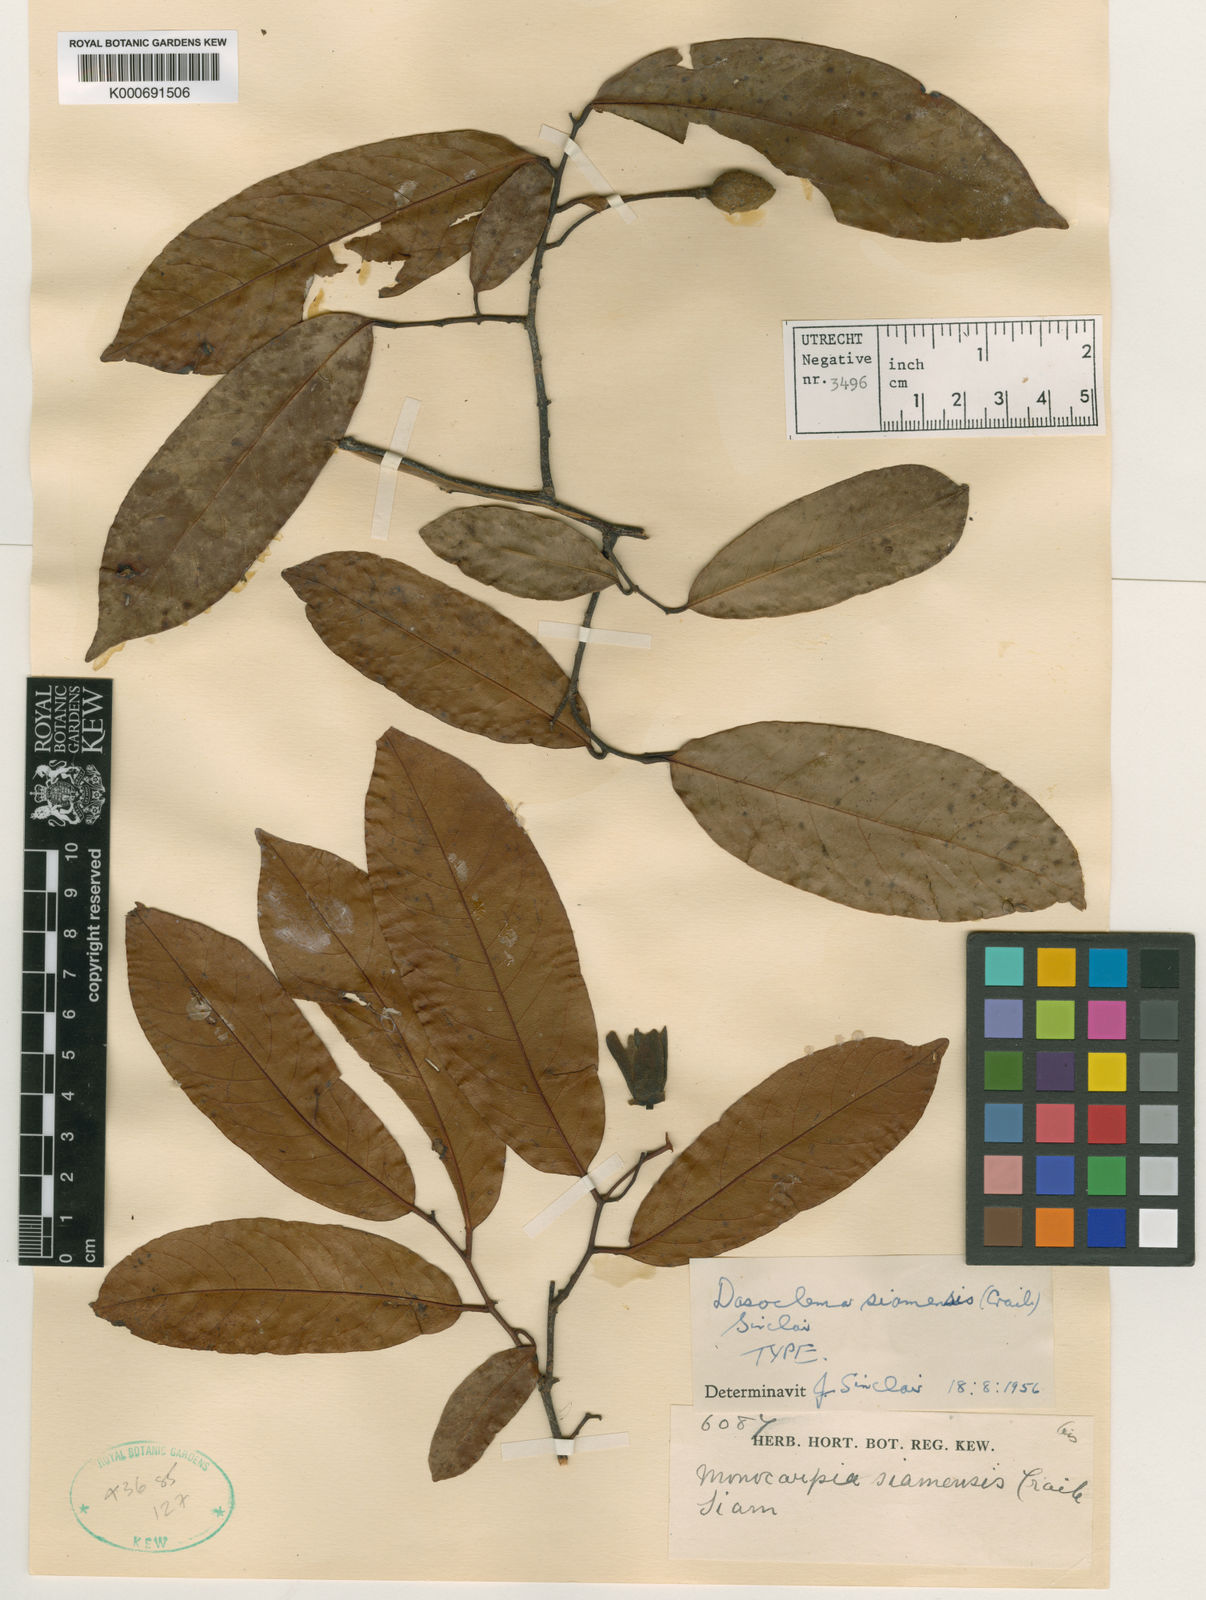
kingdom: Plantae
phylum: Tracheophyta
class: Magnoliopsida
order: Magnoliales
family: Annonaceae
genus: Uvaria
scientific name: Uvaria dasoclema
